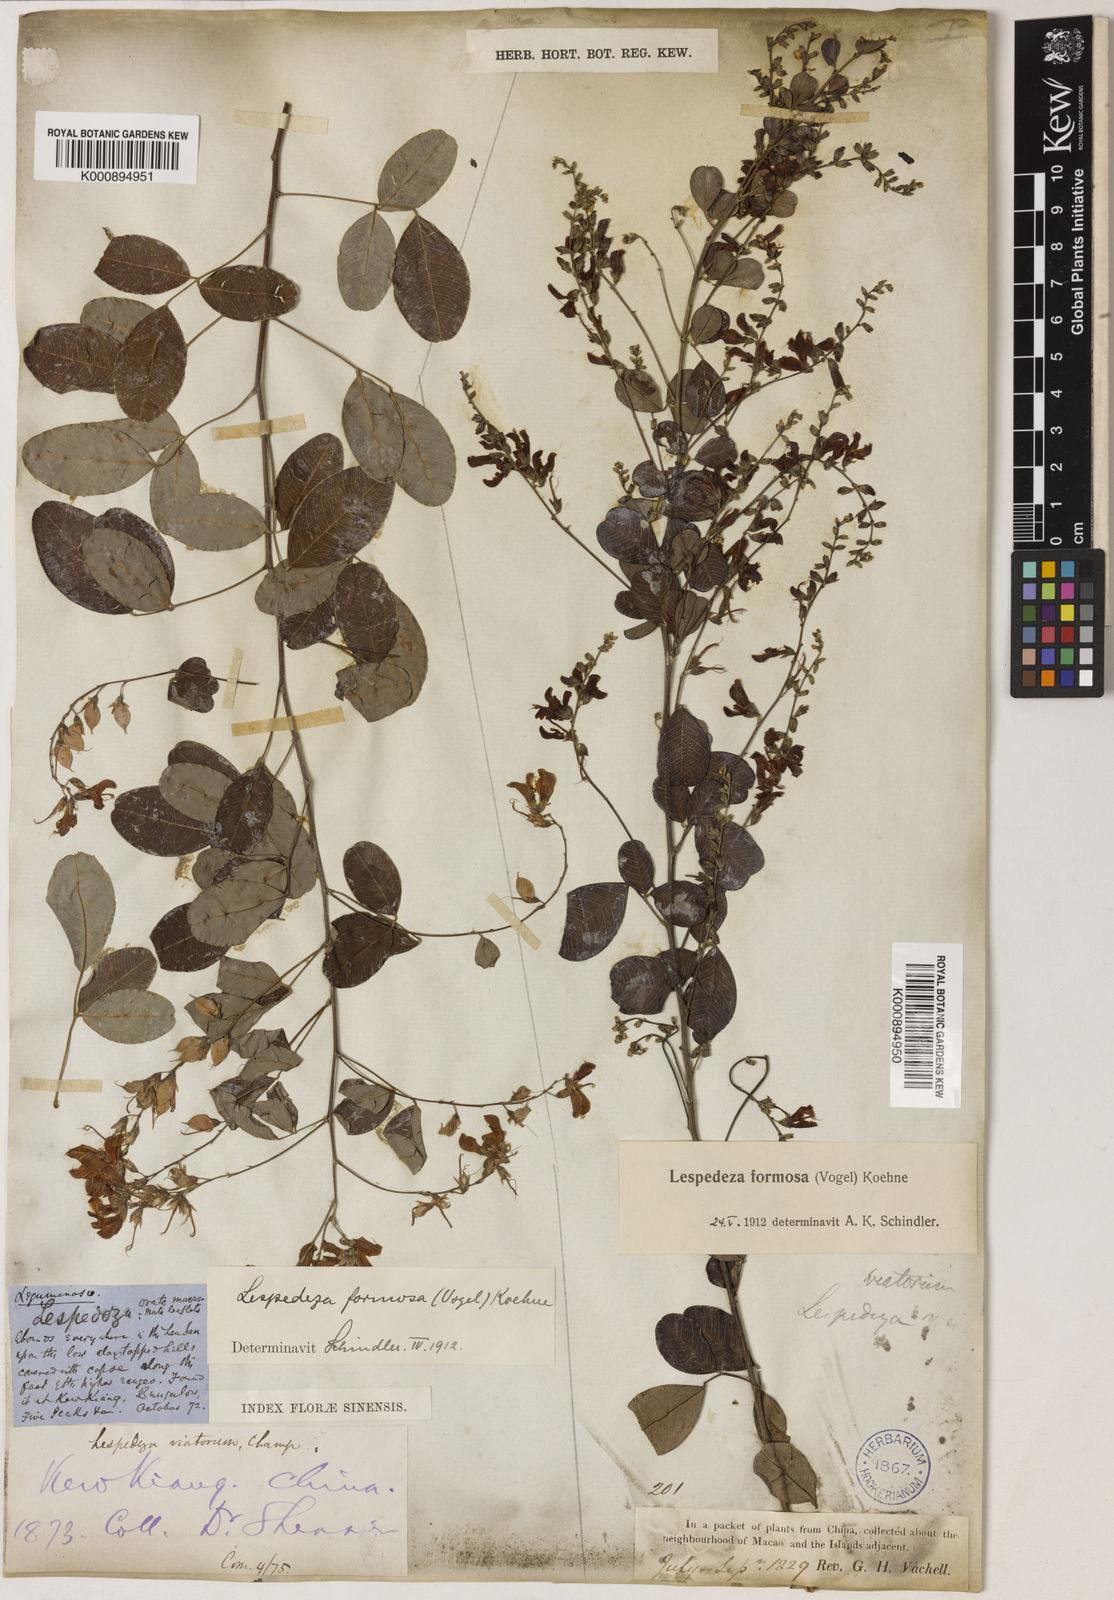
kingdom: Plantae
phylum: Tracheophyta
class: Magnoliopsida
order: Fabales
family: Fabaceae
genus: Lespedeza
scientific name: Lespedeza thunbergii
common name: Thunberg's lespedeza
